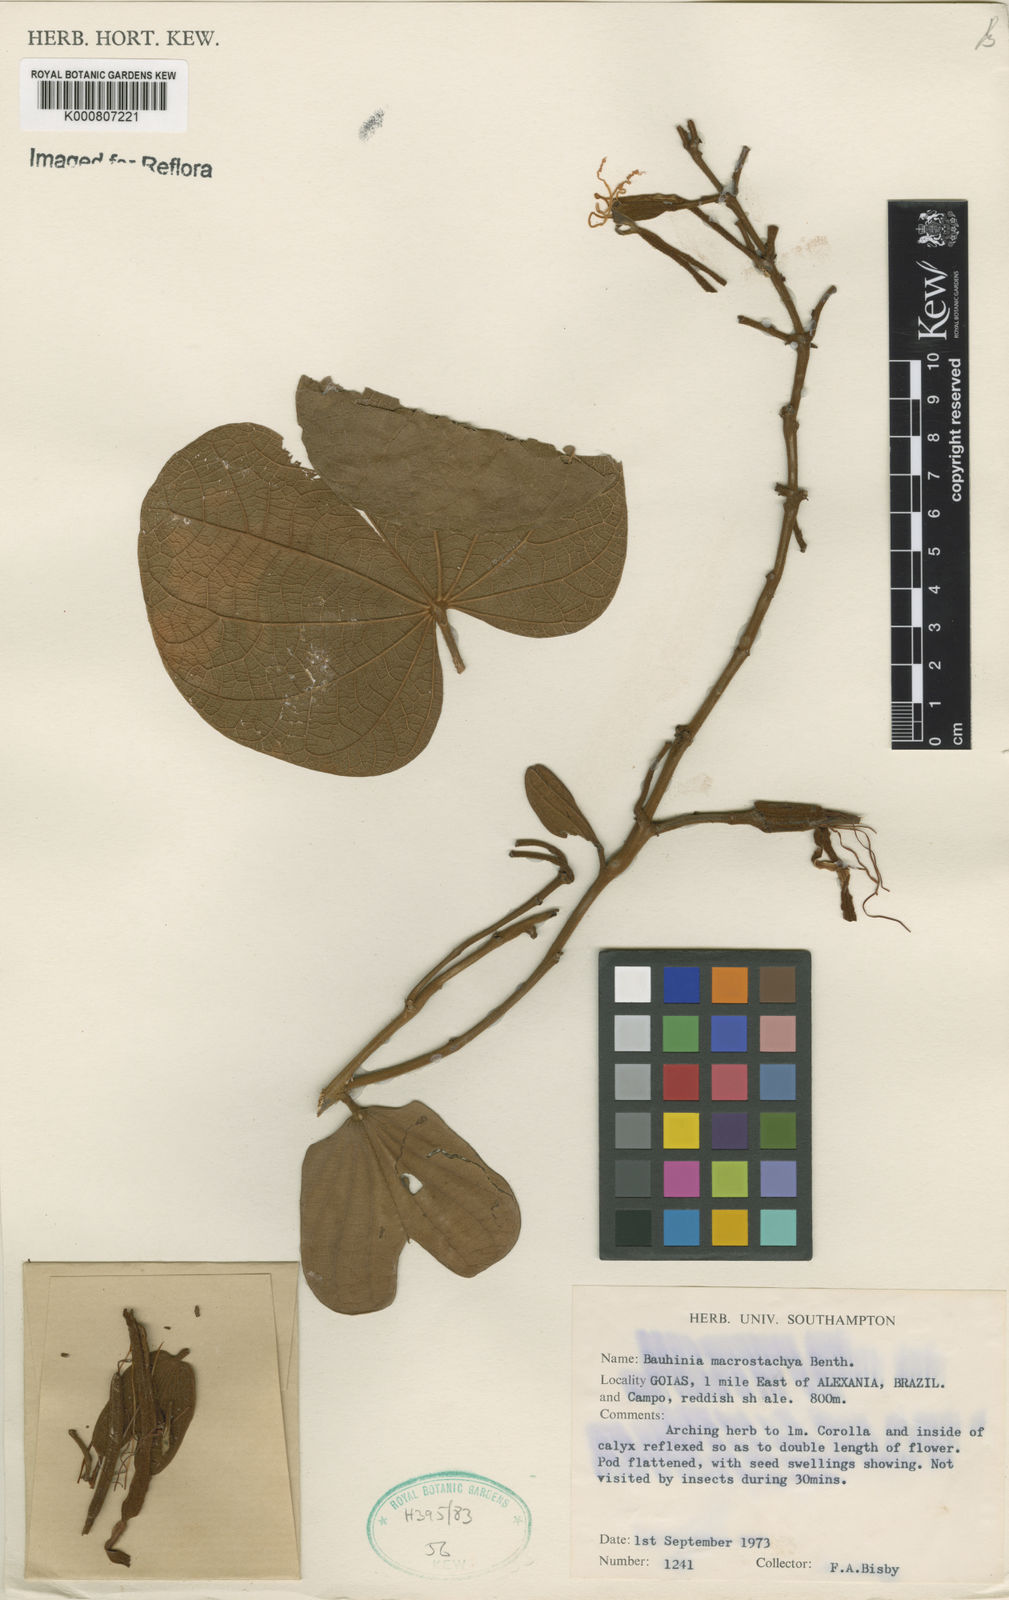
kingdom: Plantae
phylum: Tracheophyta
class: Magnoliopsida
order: Fabales
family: Fabaceae
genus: Bauhinia
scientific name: Bauhinia ungulata
